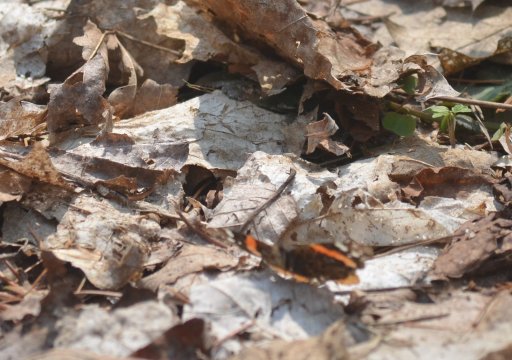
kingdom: Animalia
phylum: Arthropoda
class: Insecta
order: Lepidoptera
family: Nymphalidae
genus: Vanessa
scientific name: Vanessa atalanta
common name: Red Admiral
